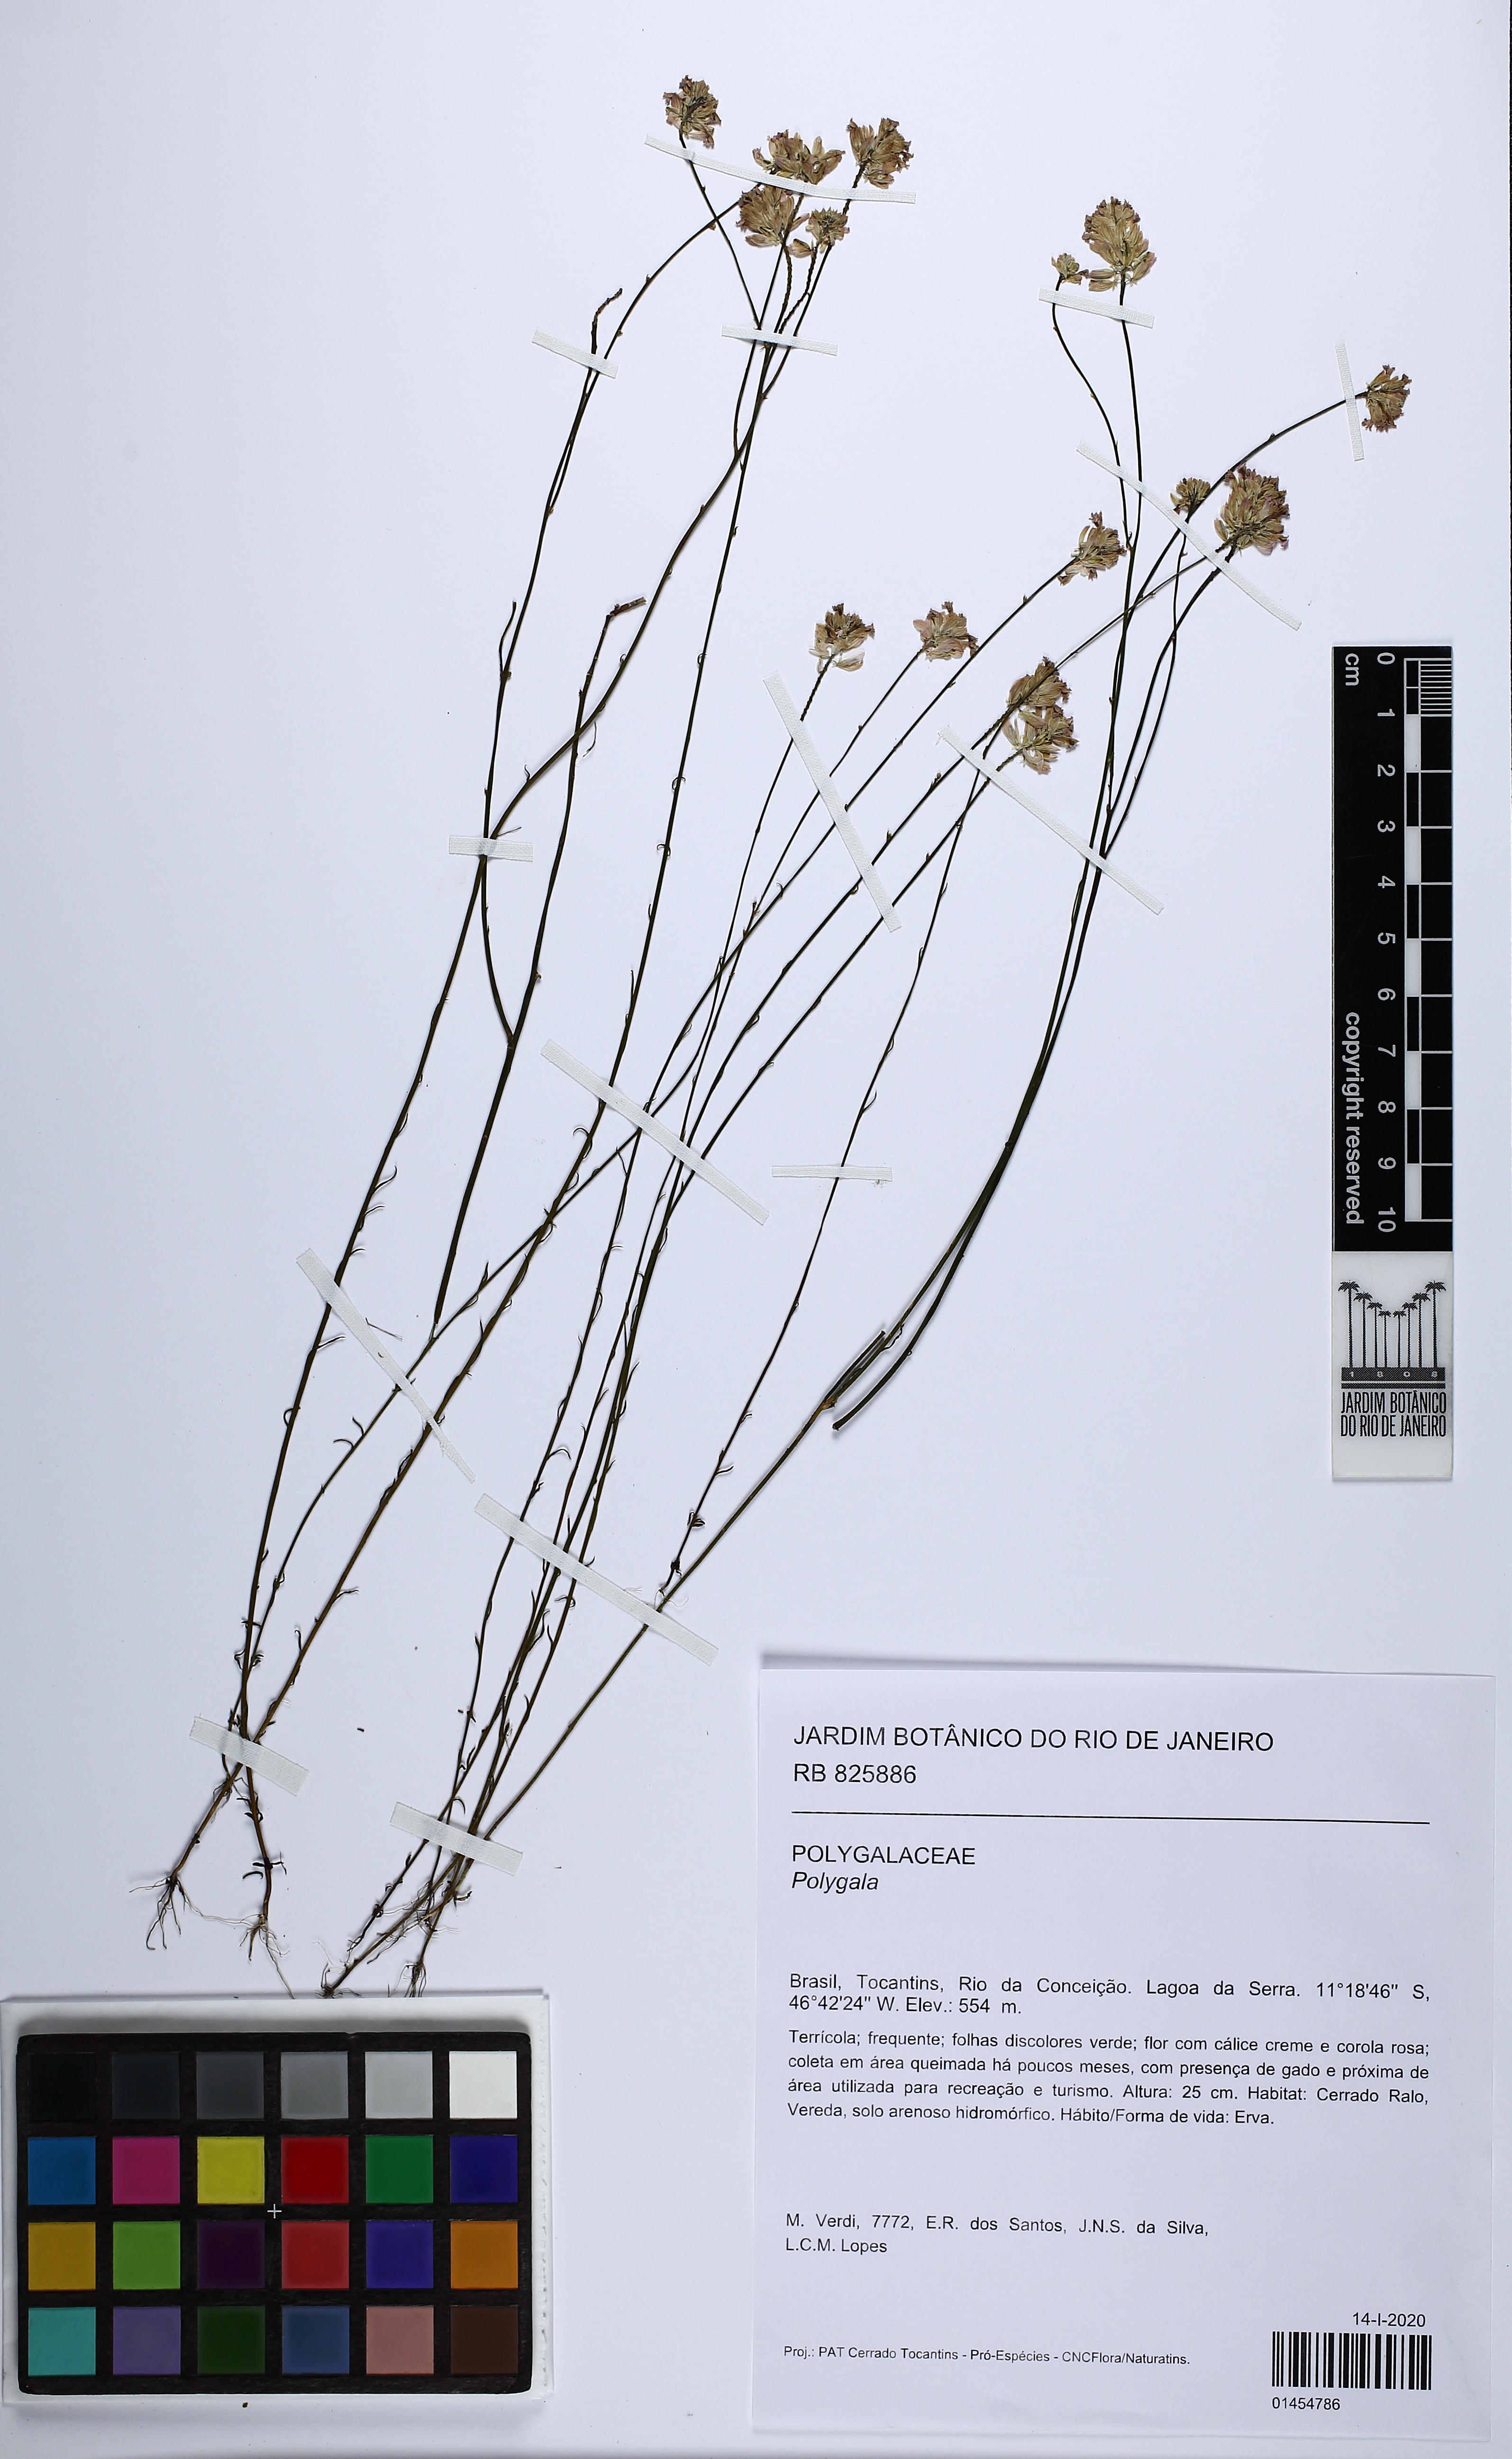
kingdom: Plantae
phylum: Tracheophyta
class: Magnoliopsida
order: Fabales
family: Polygalaceae
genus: Polygala
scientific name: Polygala
